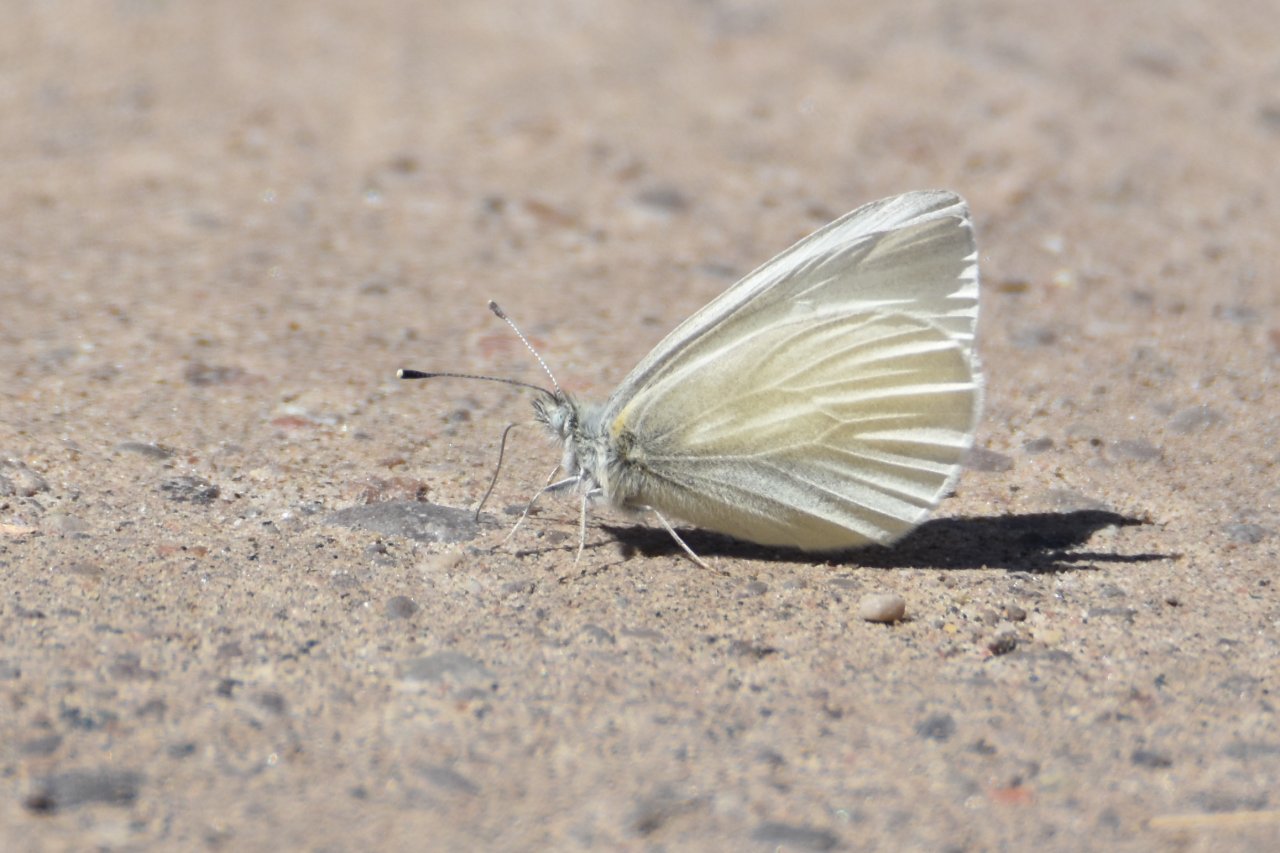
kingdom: Animalia
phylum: Arthropoda
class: Insecta
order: Lepidoptera
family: Pieridae
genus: Pieris
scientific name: Pieris virginiensis
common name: West Virginia White
